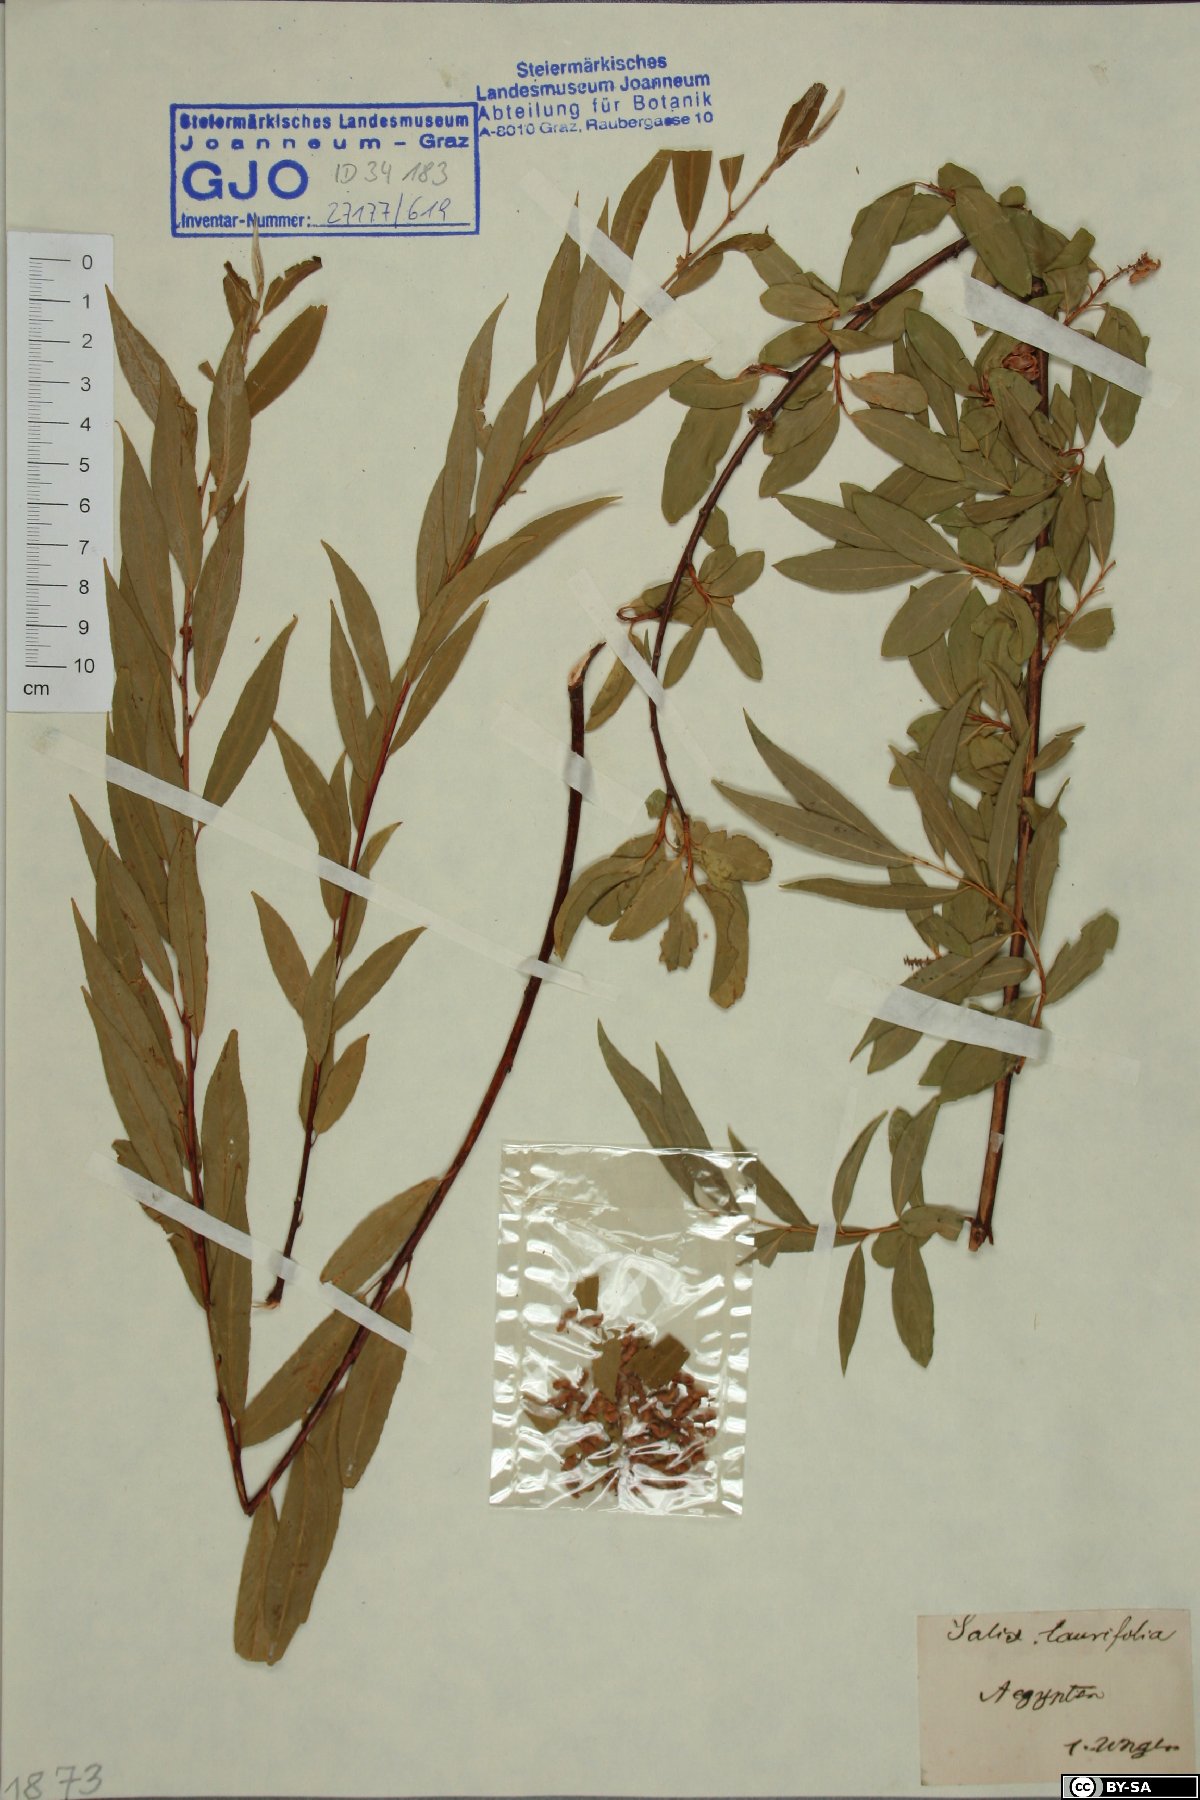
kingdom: Plantae
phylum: Tracheophyta
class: Magnoliopsida
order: Malpighiales
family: Salicaceae
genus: Salix
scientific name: Salix pentandra
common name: Bay willow
